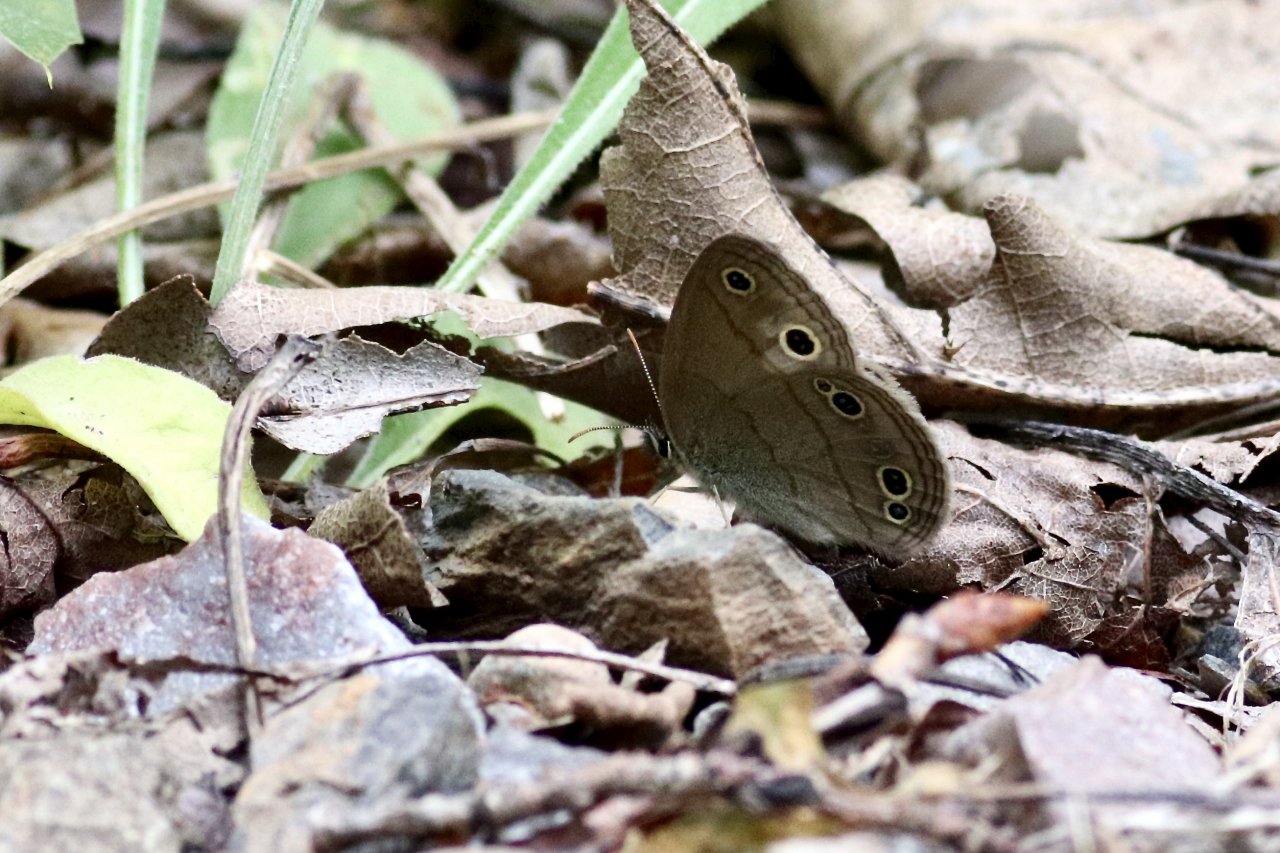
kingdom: Animalia
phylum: Arthropoda
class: Insecta
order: Lepidoptera
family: Nymphalidae
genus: Euptychia
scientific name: Euptychia cymela
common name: Little Wood Satyr
